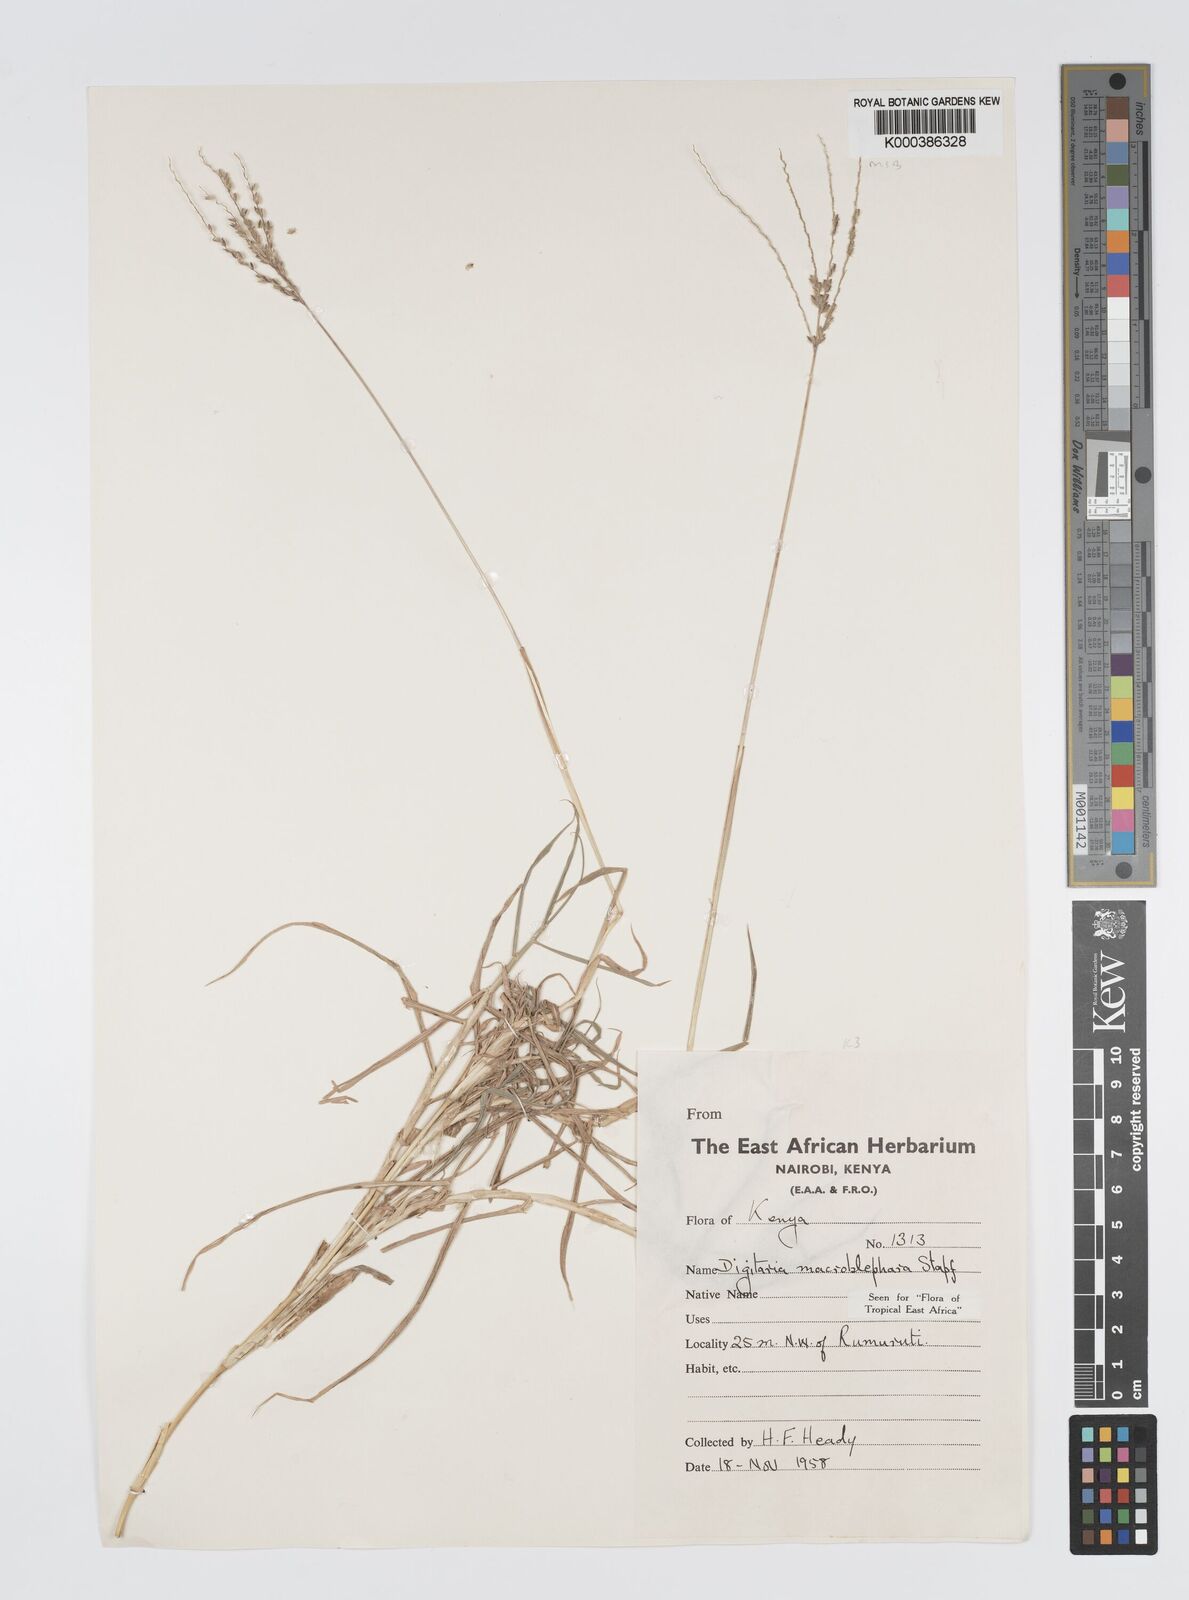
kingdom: Plantae
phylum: Tracheophyta
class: Liliopsida
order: Poales
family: Poaceae
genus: Digitaria
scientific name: Digitaria macroblephara
